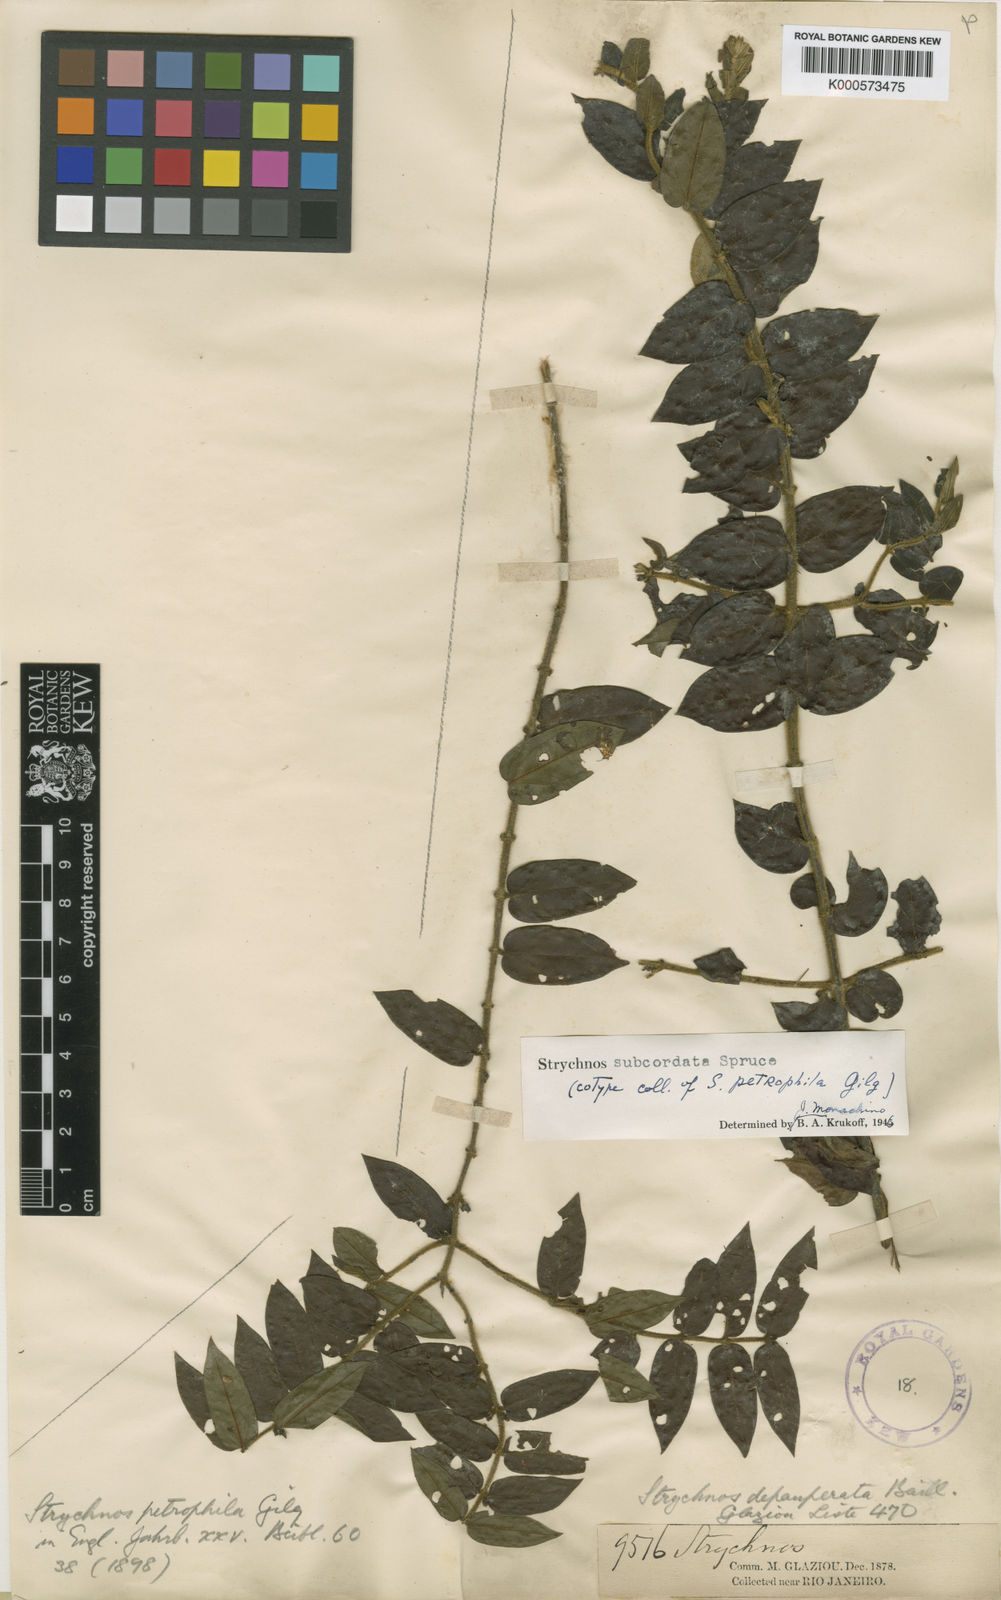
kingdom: Plantae
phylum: Tracheophyta
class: Magnoliopsida
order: Gentianales
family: Loganiaceae
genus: Strychnos
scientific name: Strychnos subcordata
